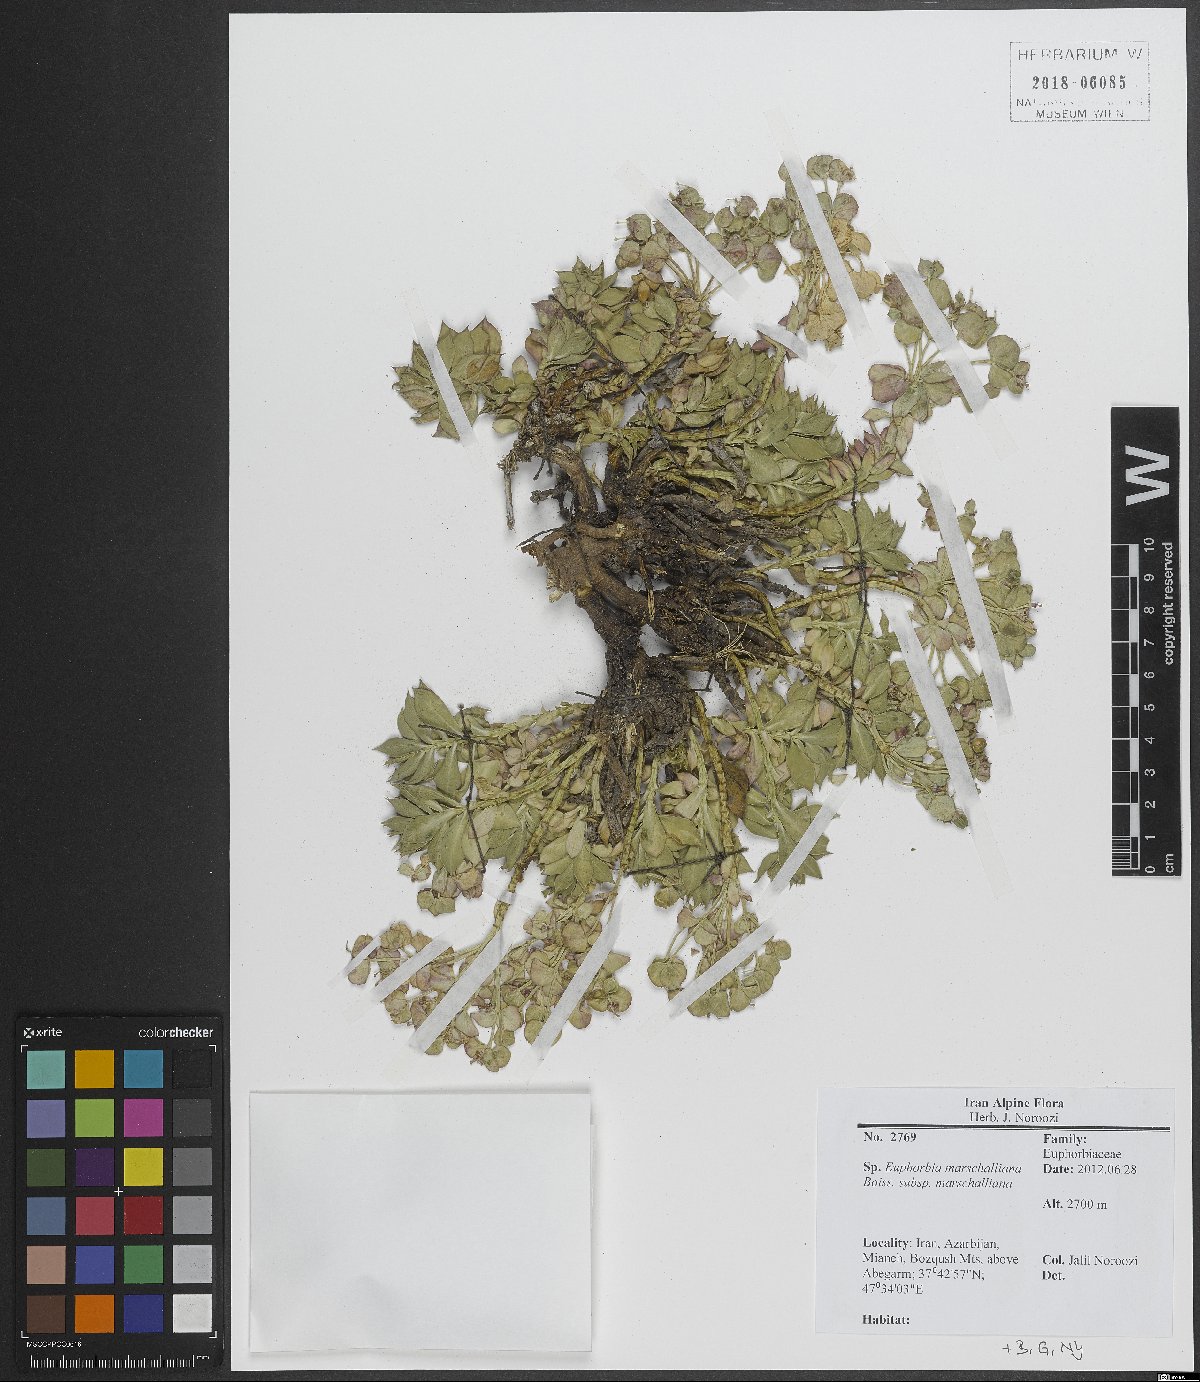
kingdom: Plantae
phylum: Tracheophyta
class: Magnoliopsida
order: Malpighiales
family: Euphorbiaceae
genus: Euphorbia
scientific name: Euphorbia marschalliana
